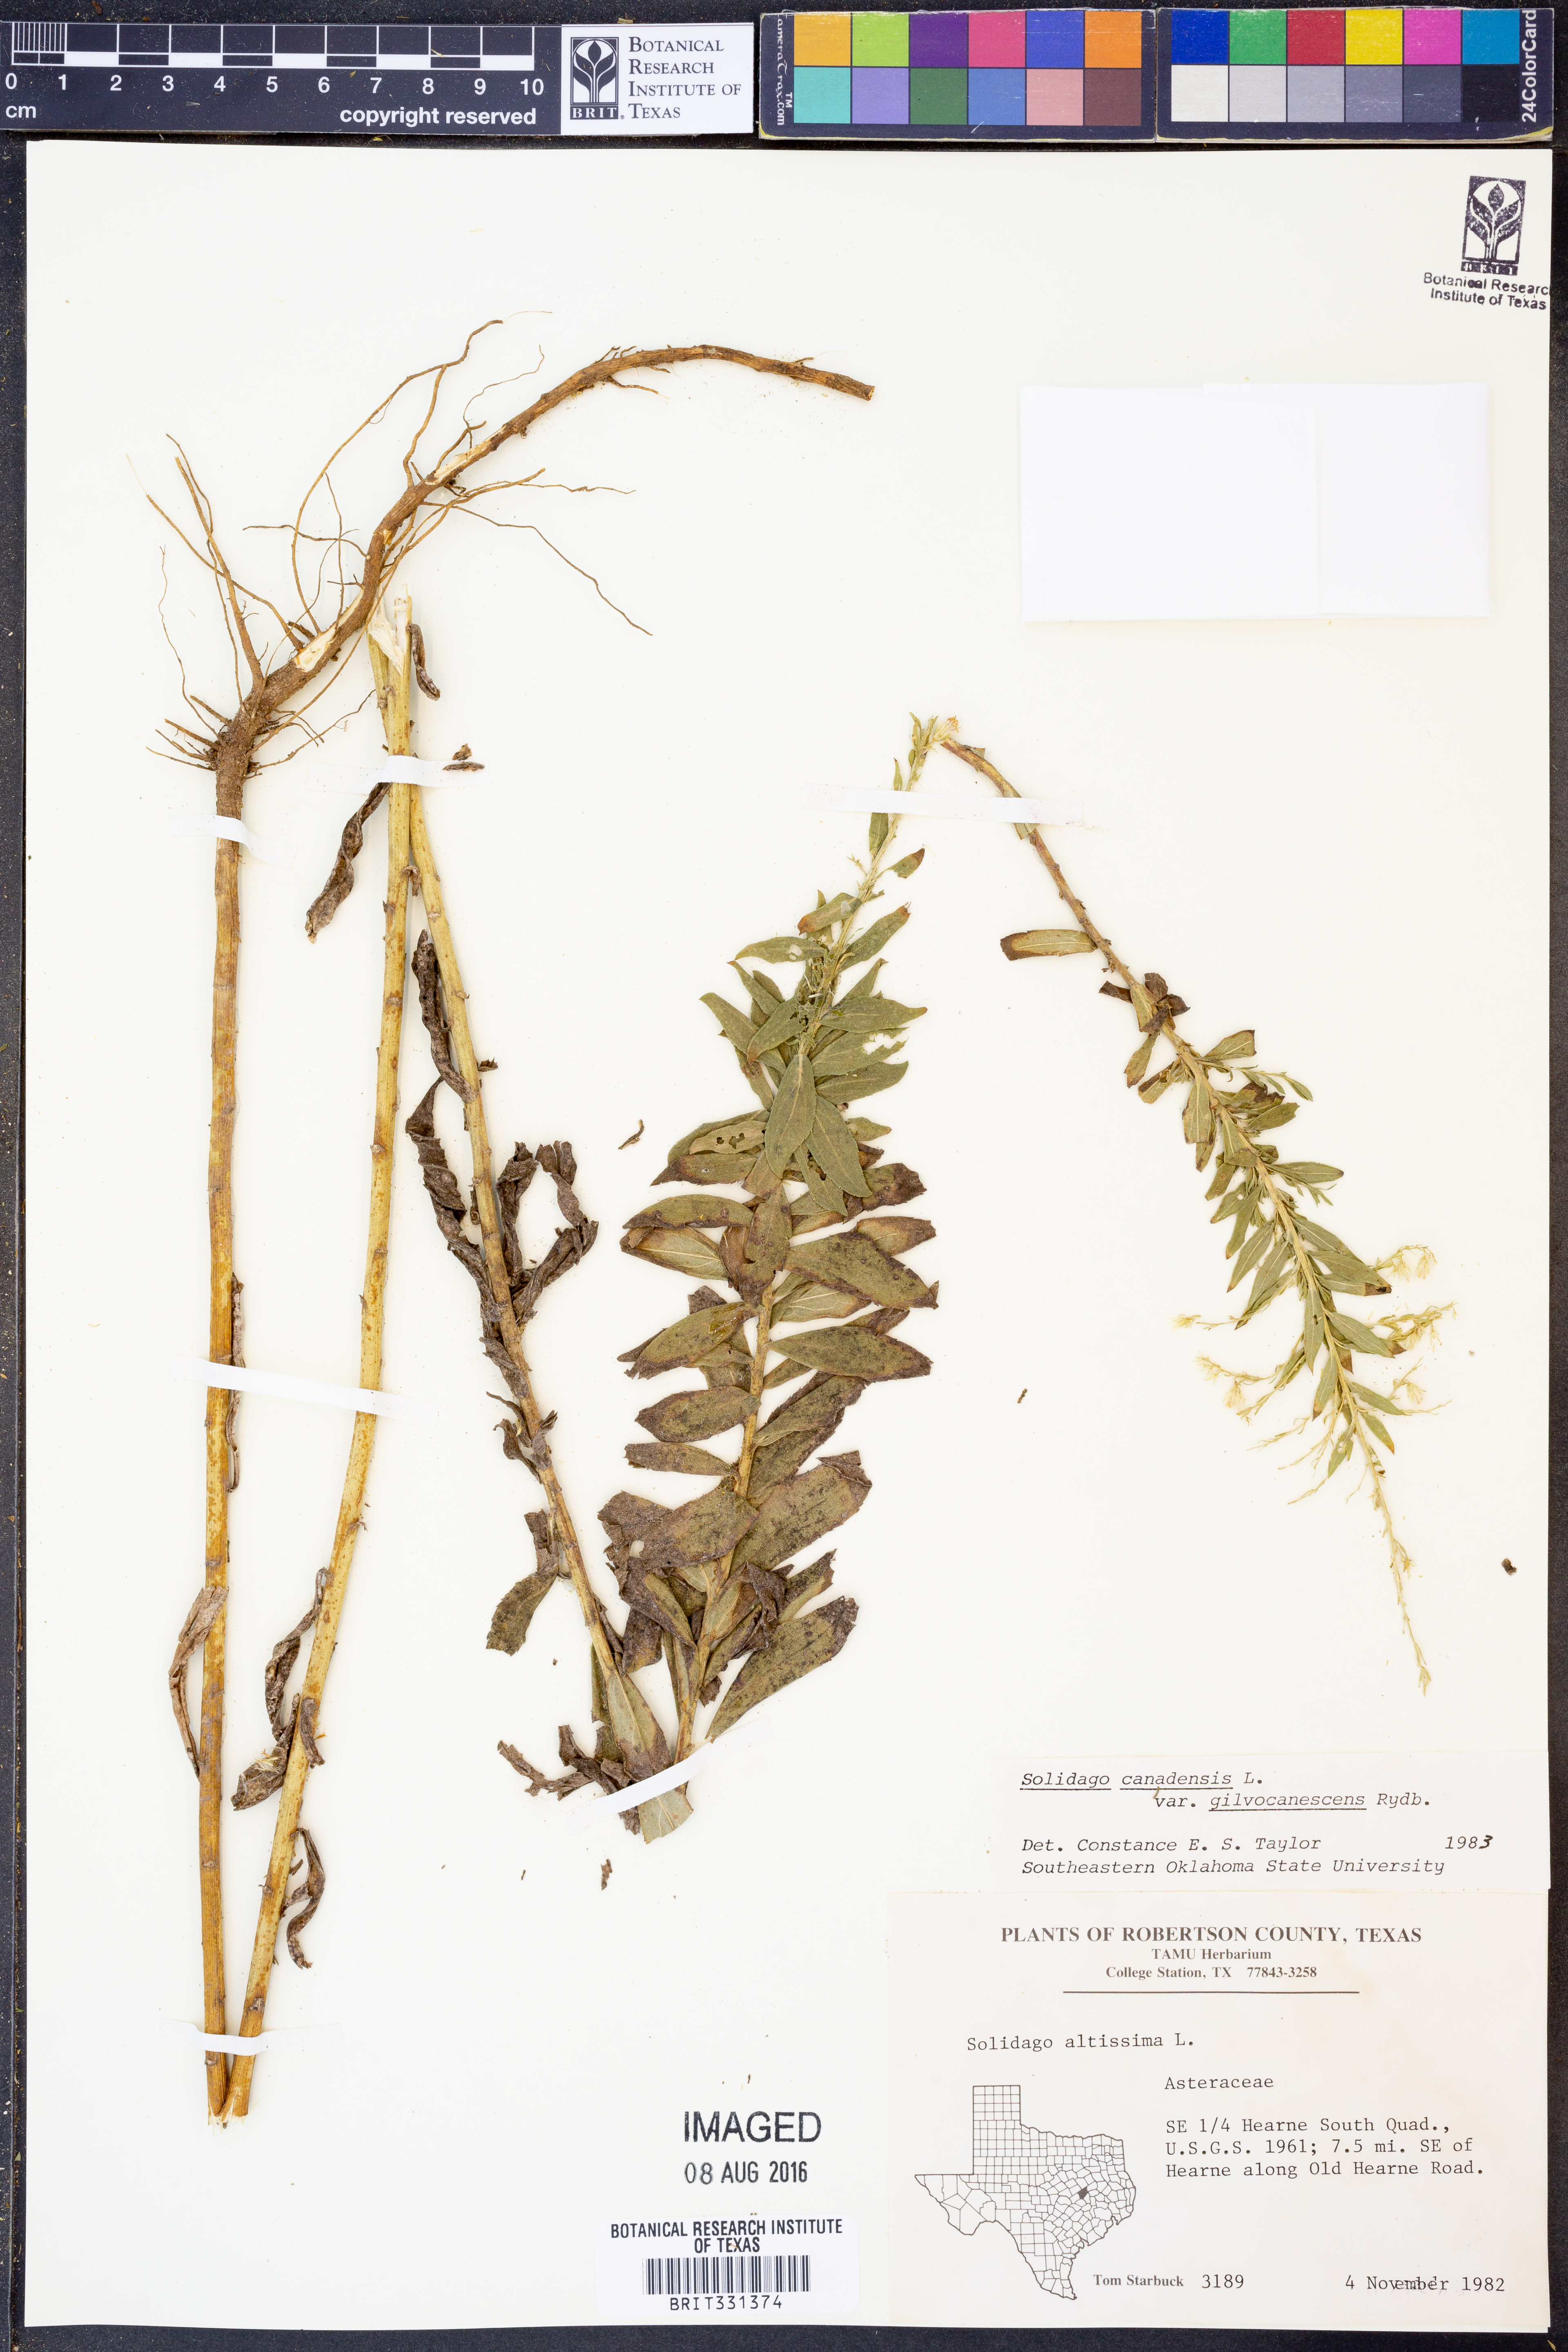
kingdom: Plantae
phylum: Tracheophyta
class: Magnoliopsida
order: Asterales
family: Asteraceae
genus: Solidago
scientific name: Solidago altissima
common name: Late goldenrod
